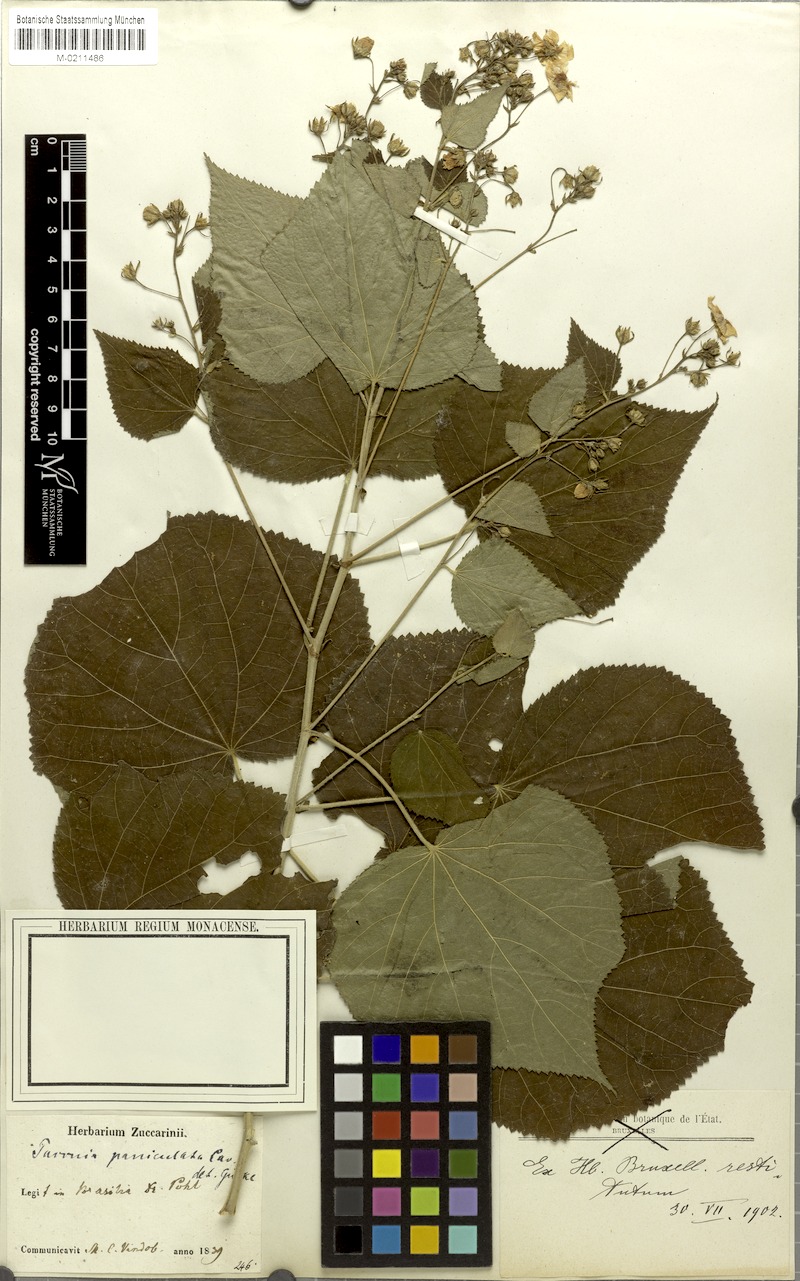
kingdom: Plantae
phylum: Tracheophyta
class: Magnoliopsida
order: Malvales
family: Malvaceae
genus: Pavonia
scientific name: Pavonia paniculata
